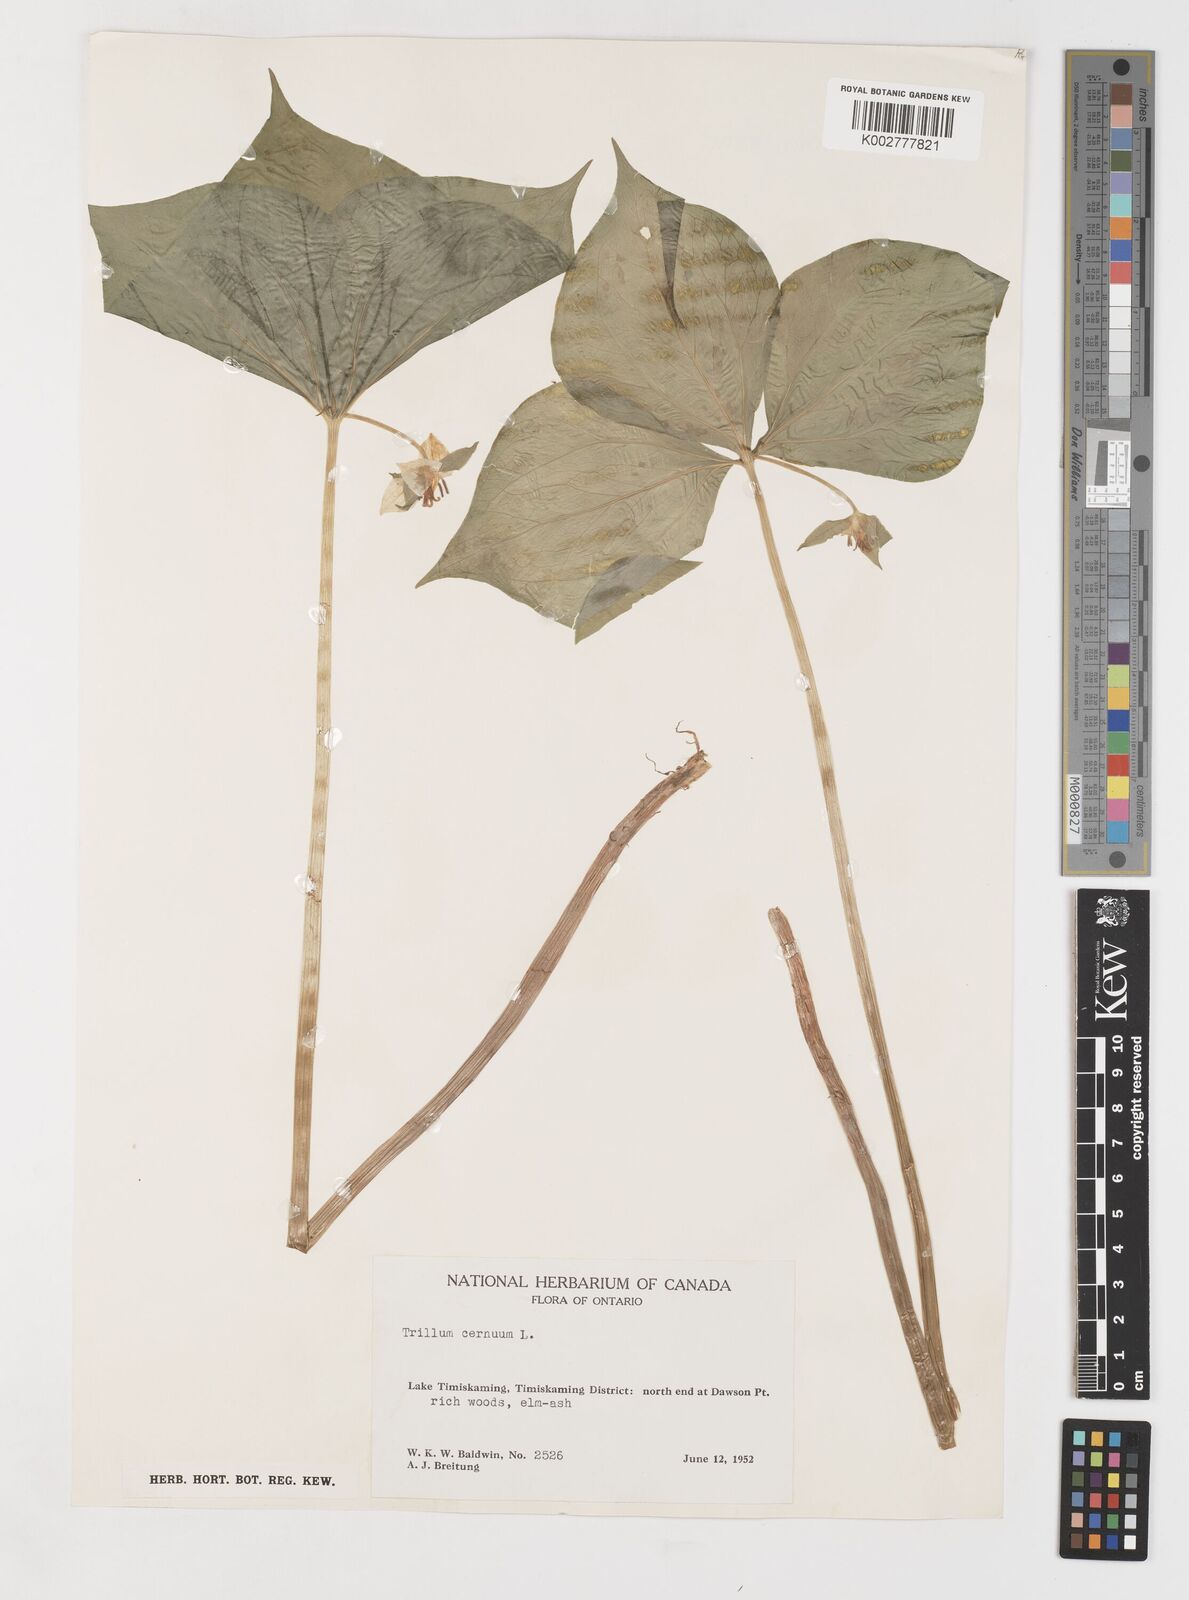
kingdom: Plantae
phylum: Tracheophyta
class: Liliopsida
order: Liliales
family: Melanthiaceae
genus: Trillium
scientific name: Trillium cernuum
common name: Nodding trillium
